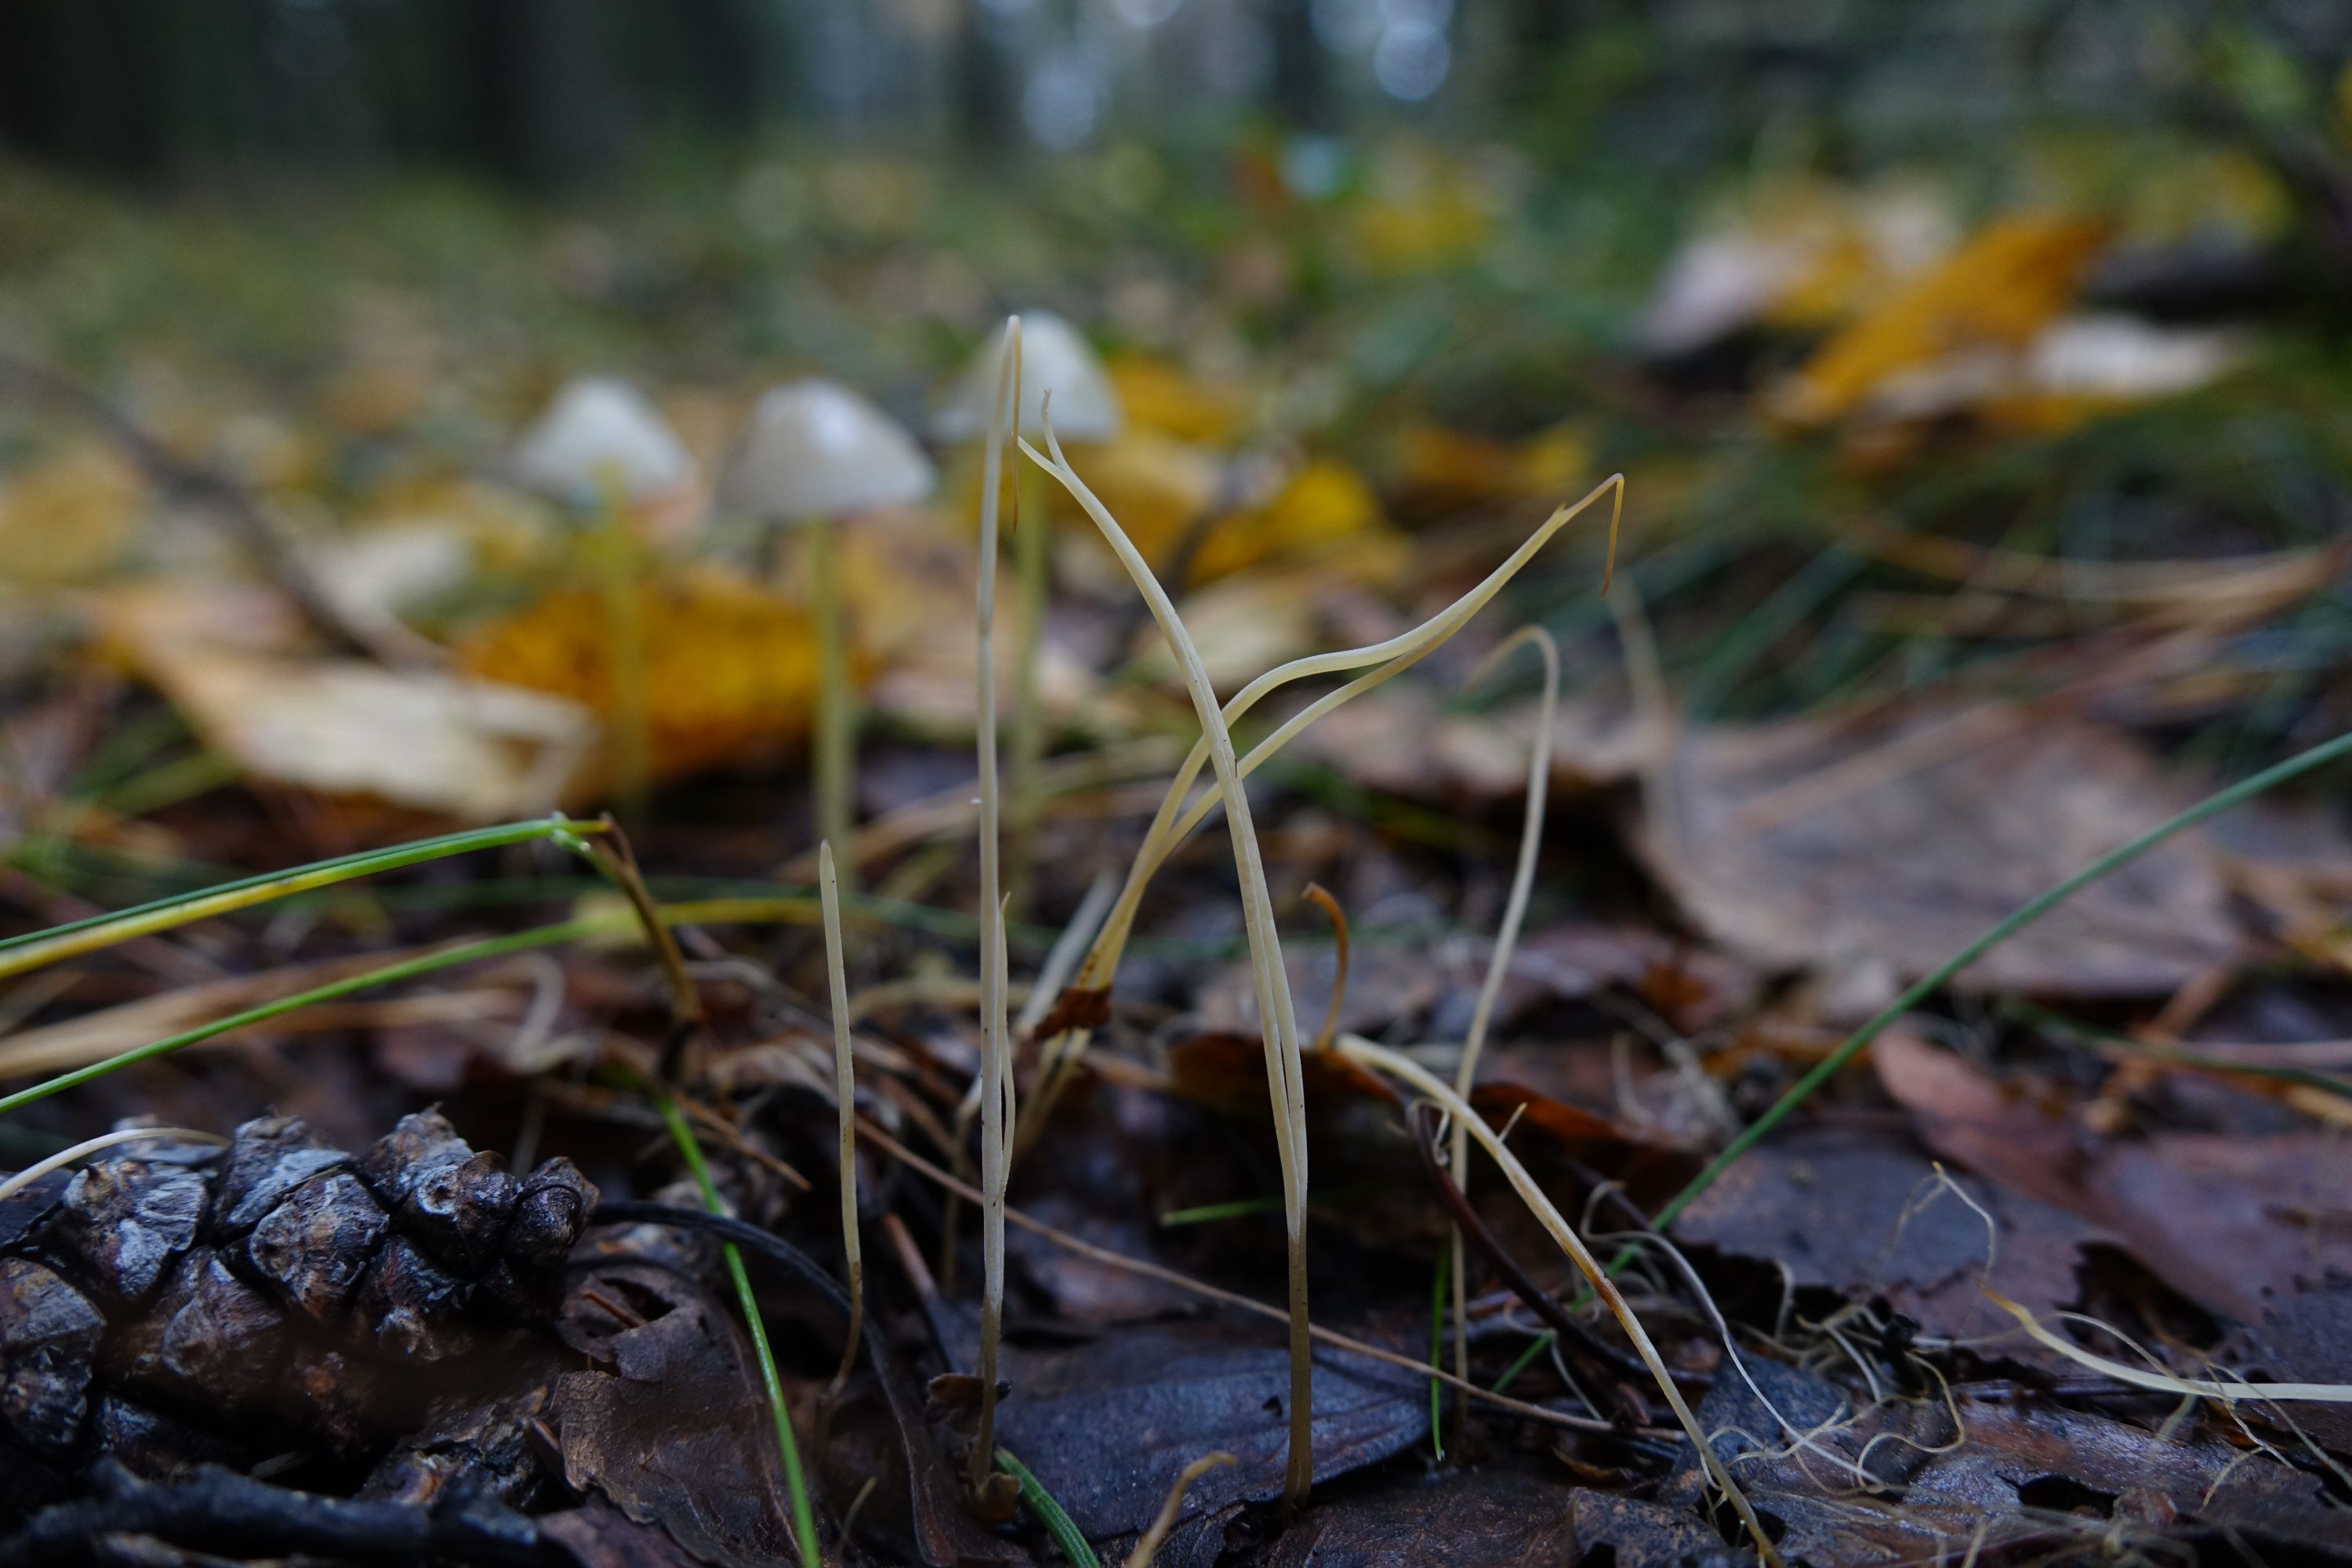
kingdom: Fungi
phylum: Basidiomycota
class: Agaricomycetes
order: Agaricales
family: Typhulaceae
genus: Typhula
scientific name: Typhula juncea
